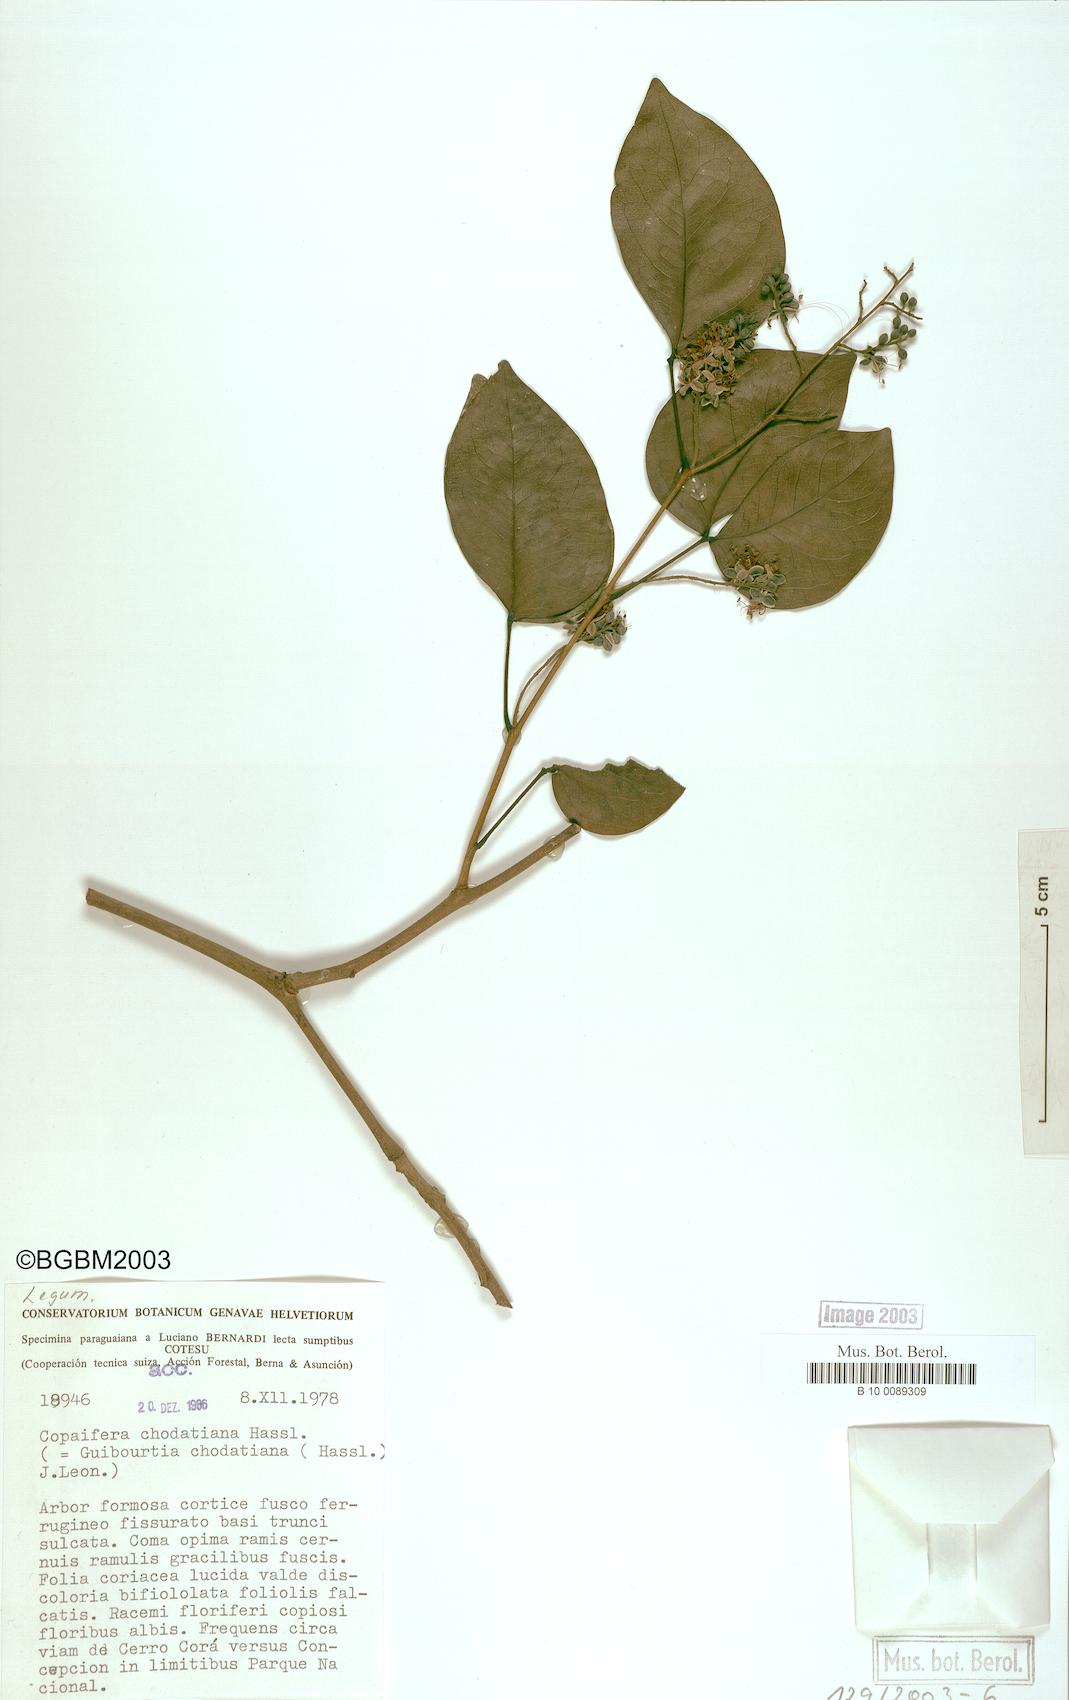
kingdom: Plantae
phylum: Tracheophyta
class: Magnoliopsida
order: Fabales
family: Fabaceae
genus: Guibourtia
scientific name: Guibourtia chodatiana
